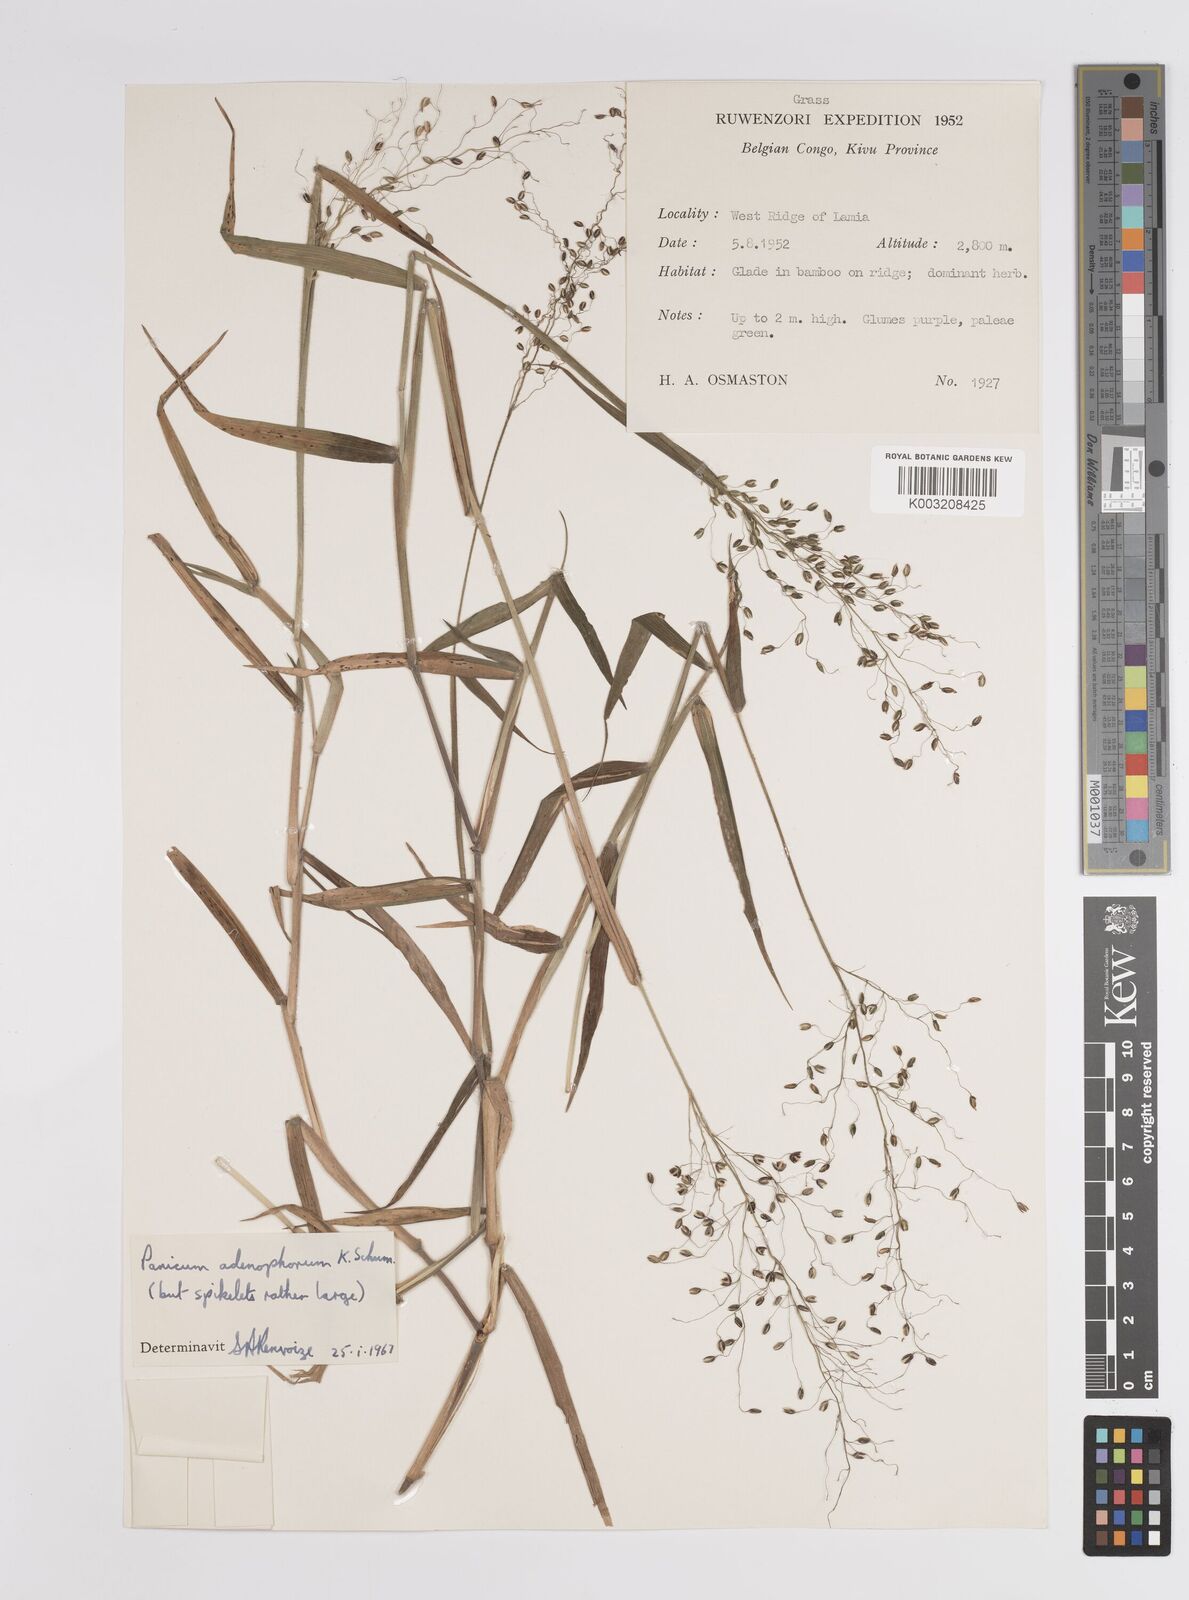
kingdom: Plantae
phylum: Tracheophyta
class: Liliopsida
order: Poales
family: Poaceae
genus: Adenochloa
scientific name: Adenochloa adenophora
